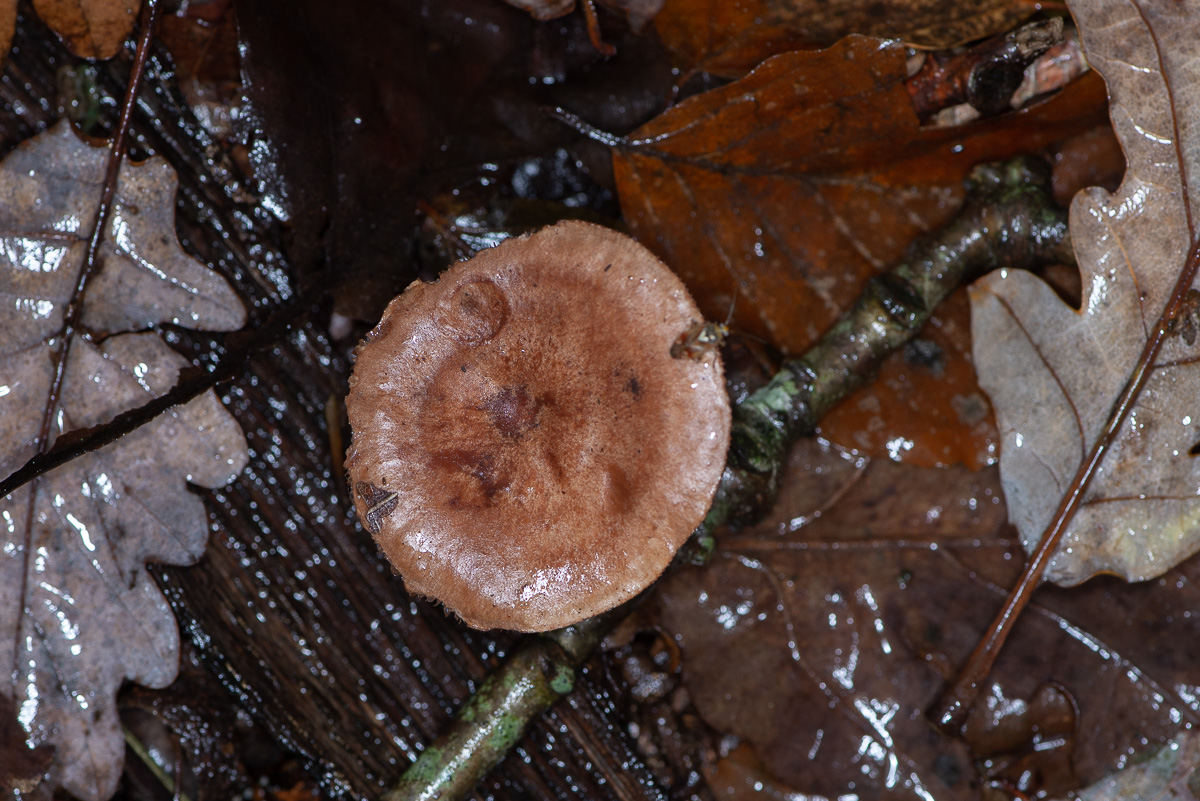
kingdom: Fungi
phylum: Basidiomycota
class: Agaricomycetes
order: Russulales
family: Russulaceae
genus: Lactarius
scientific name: Lactarius quietus
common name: ege-mælkehat
